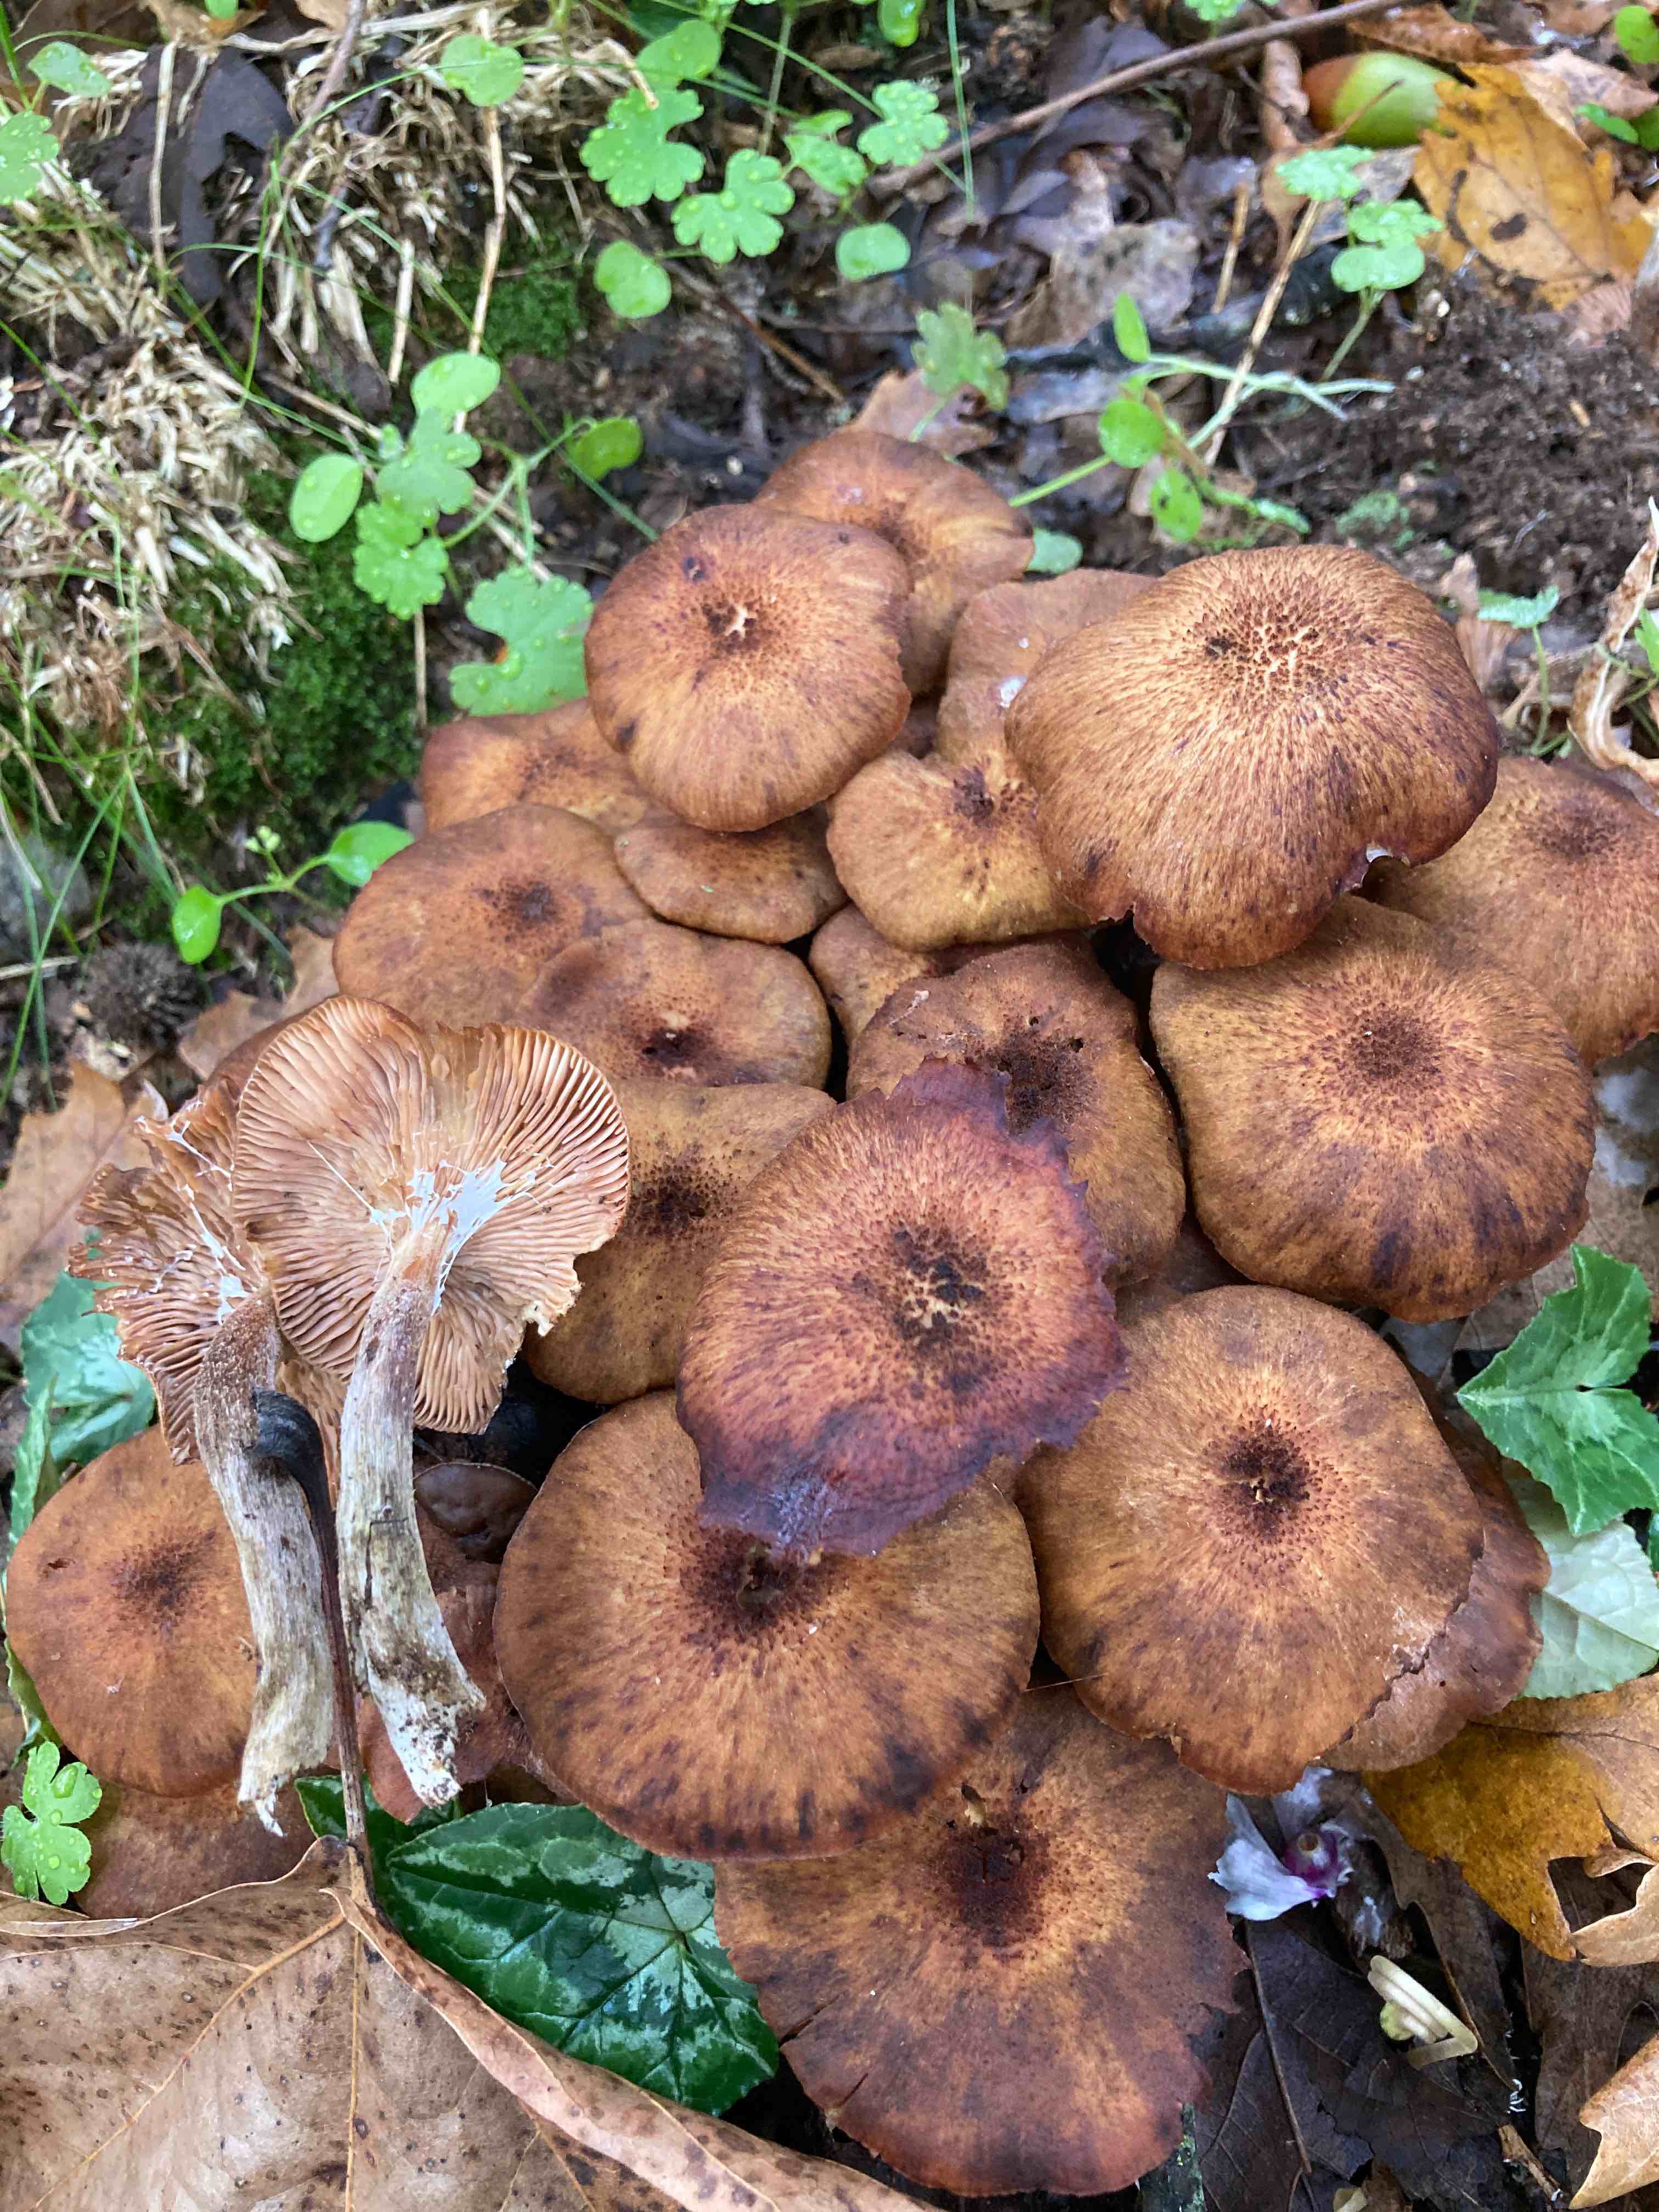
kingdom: Fungi
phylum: Basidiomycota
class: Agaricomycetes
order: Agaricales
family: Physalacriaceae
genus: Desarmillaria
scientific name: Desarmillaria tabescens
